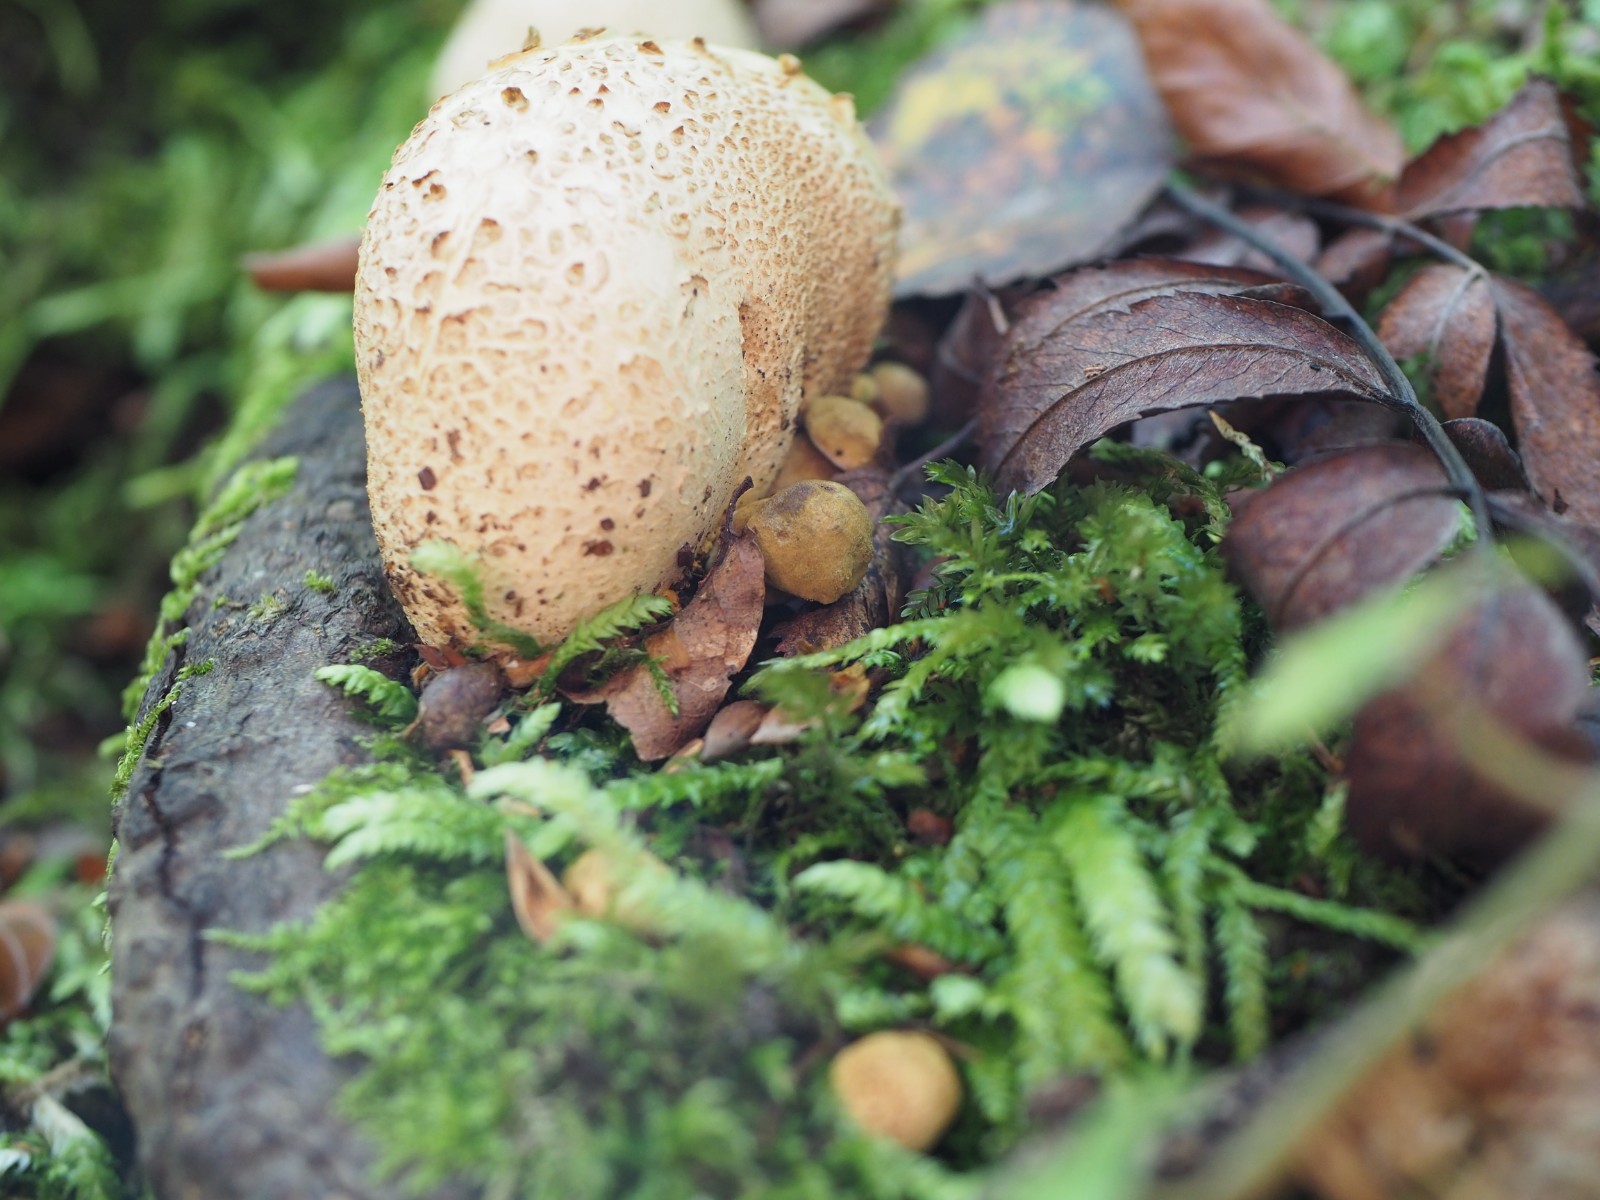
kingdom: Fungi
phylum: Basidiomycota
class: Agaricomycetes
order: Boletales
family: Boletaceae
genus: Pseudoboletus
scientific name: Pseudoboletus parasiticus
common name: snyltende rørhat
